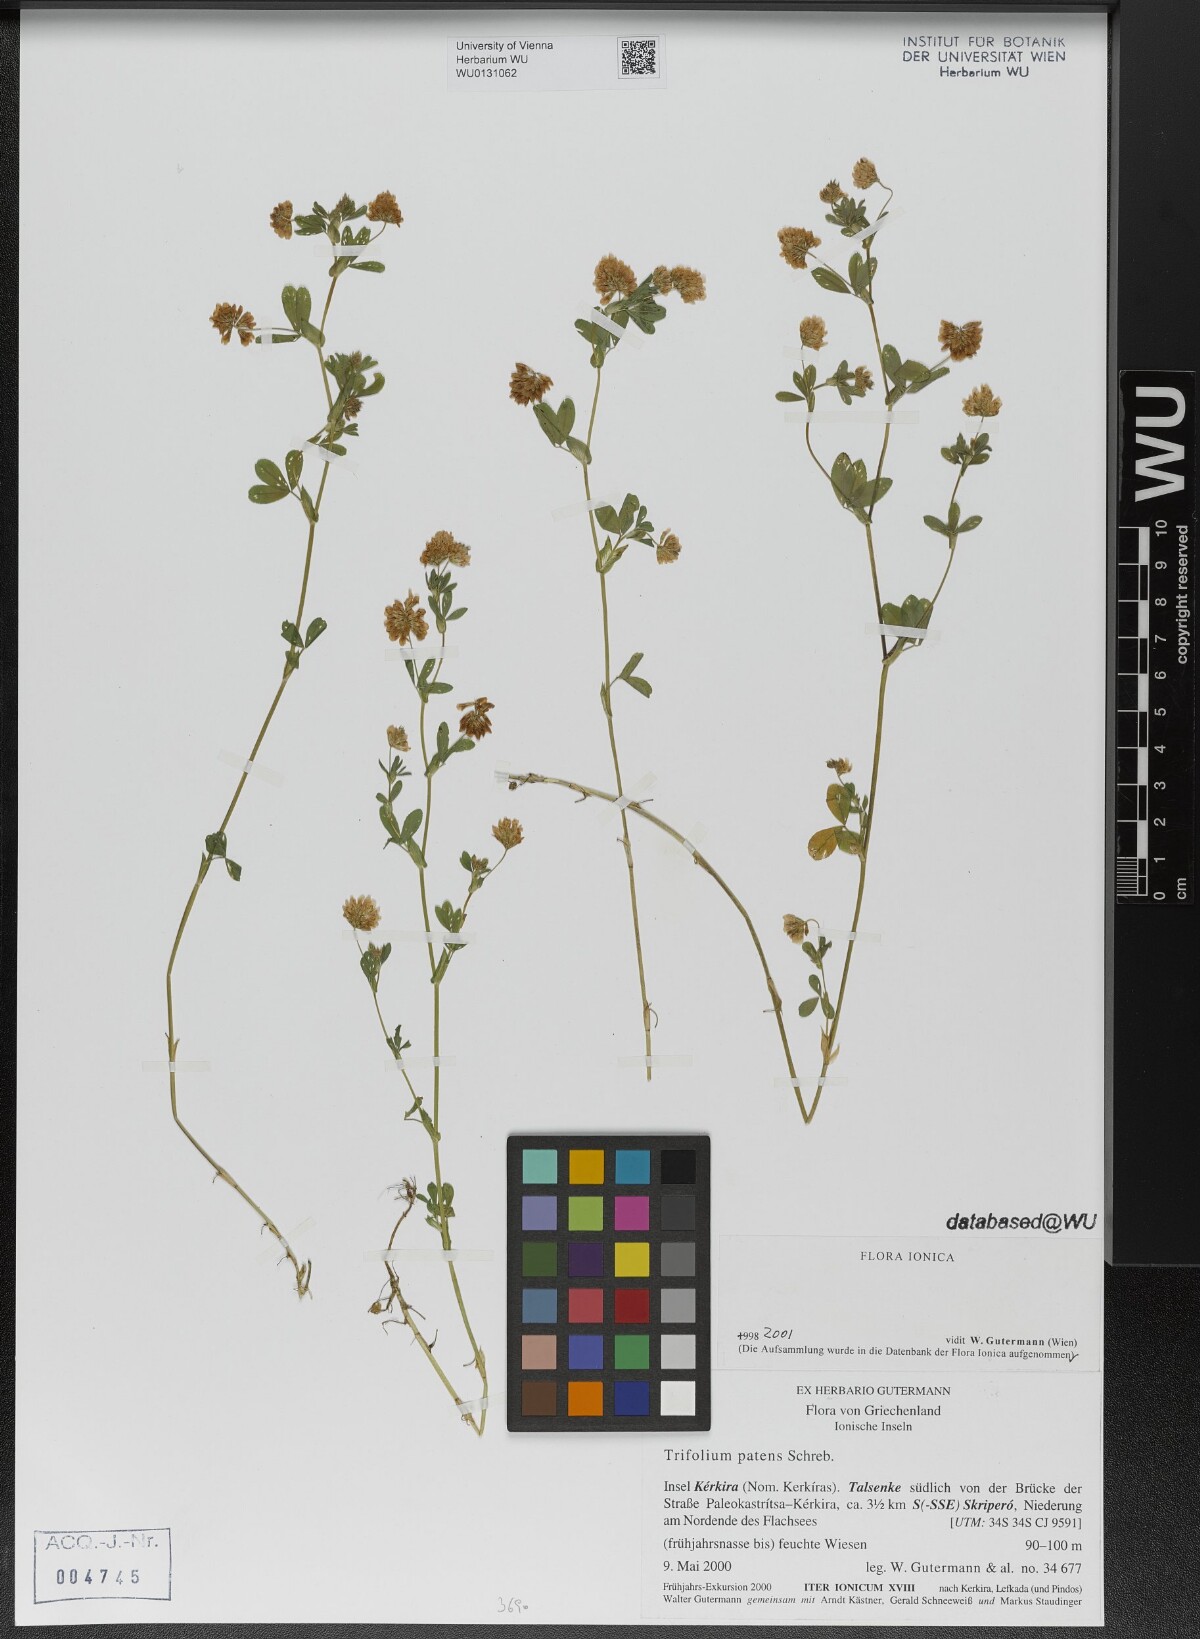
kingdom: Plantae
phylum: Tracheophyta
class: Magnoliopsida
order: Fabales
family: Fabaceae
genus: Trifolium
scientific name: Trifolium patens
